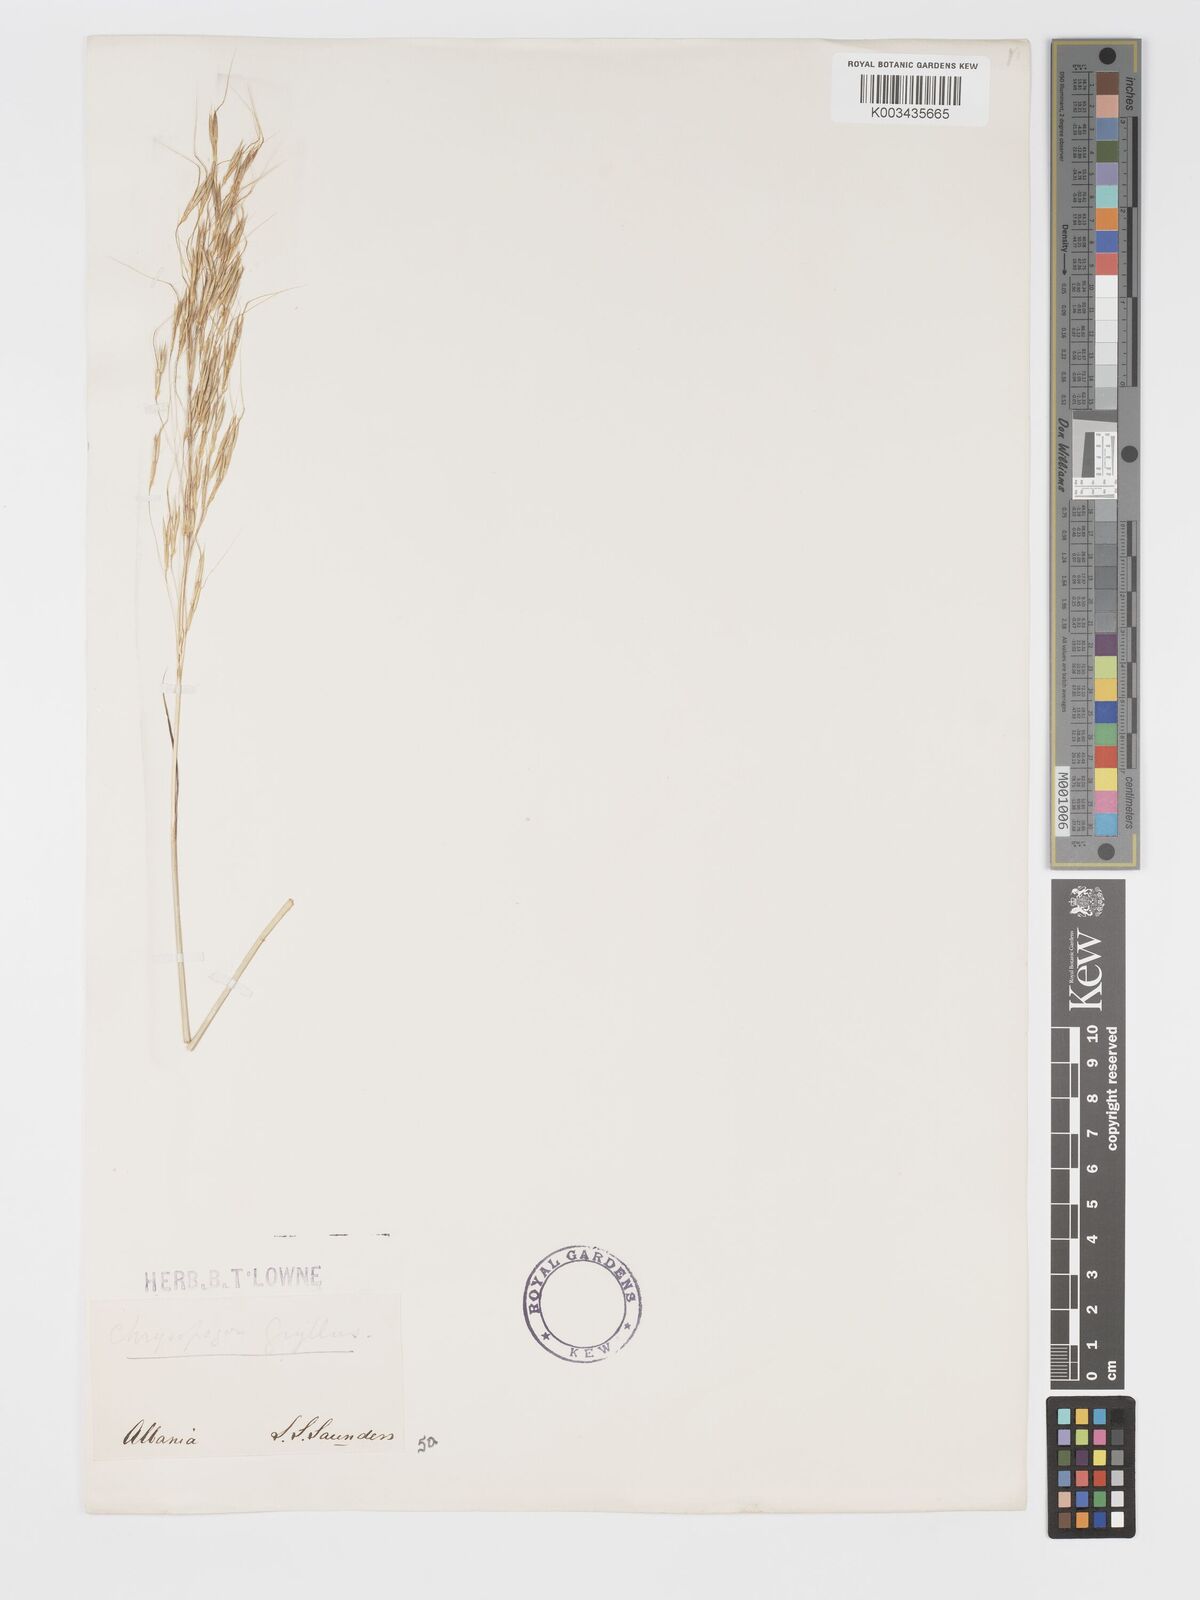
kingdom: Plantae
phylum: Tracheophyta
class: Liliopsida
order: Poales
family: Poaceae
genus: Chrysopogon
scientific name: Chrysopogon gryllus
